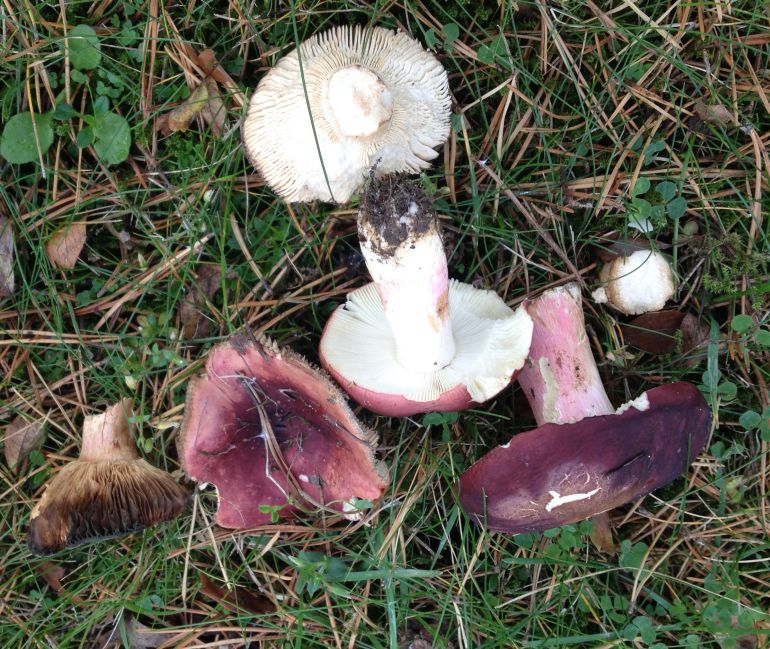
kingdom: Fungi
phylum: Basidiomycota
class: Agaricomycetes
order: Russulales
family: Russulaceae
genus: Russula
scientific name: Russula xerampelina
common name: hummer-skørhat
